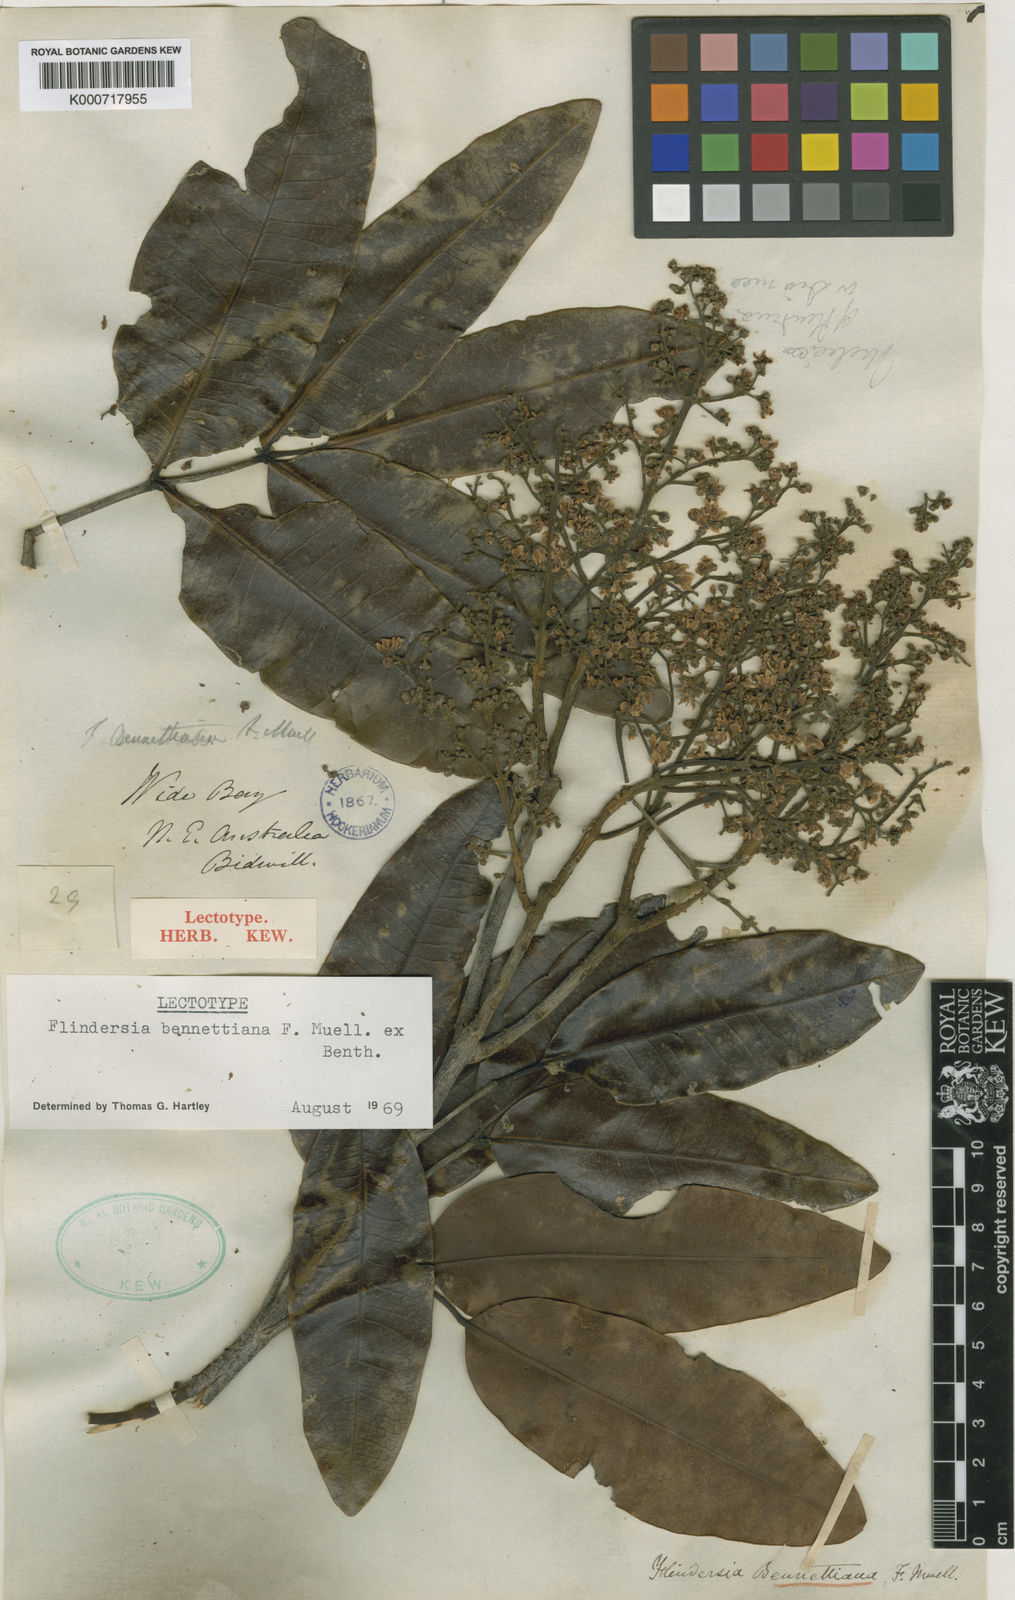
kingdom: Plantae
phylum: Tracheophyta
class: Magnoliopsida
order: Sapindales
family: Rutaceae
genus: Flindersia
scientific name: Flindersia bennettii
